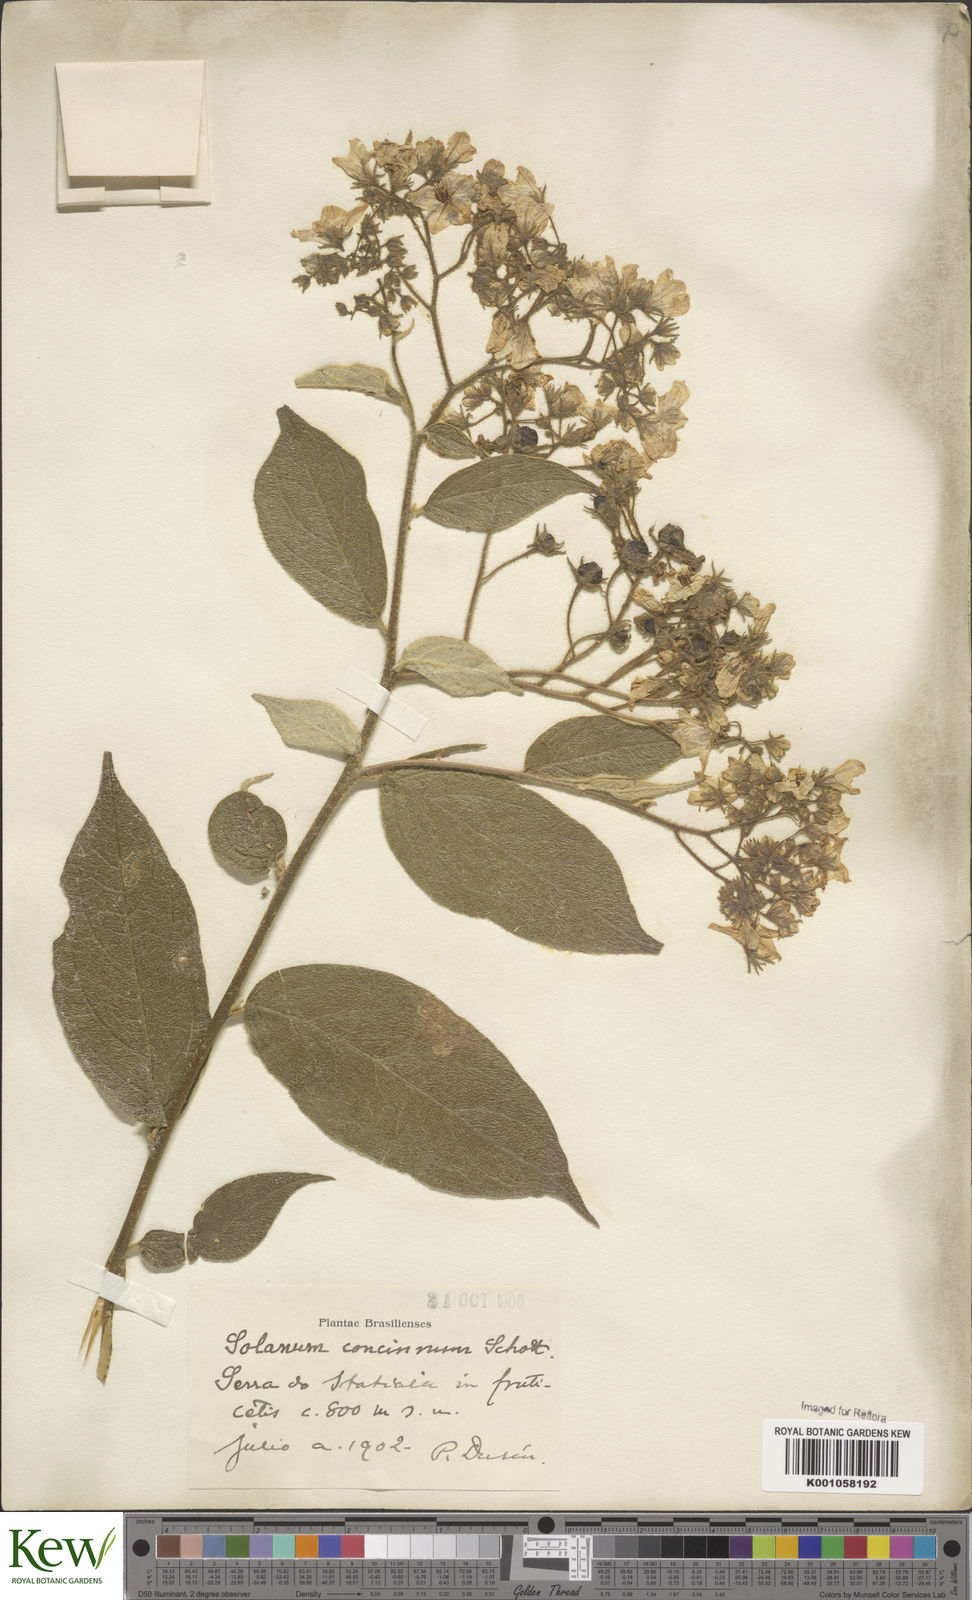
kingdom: Plantae
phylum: Tracheophyta
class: Magnoliopsida
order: Solanales
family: Solanaceae
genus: Solanum
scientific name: Solanum concinnum
